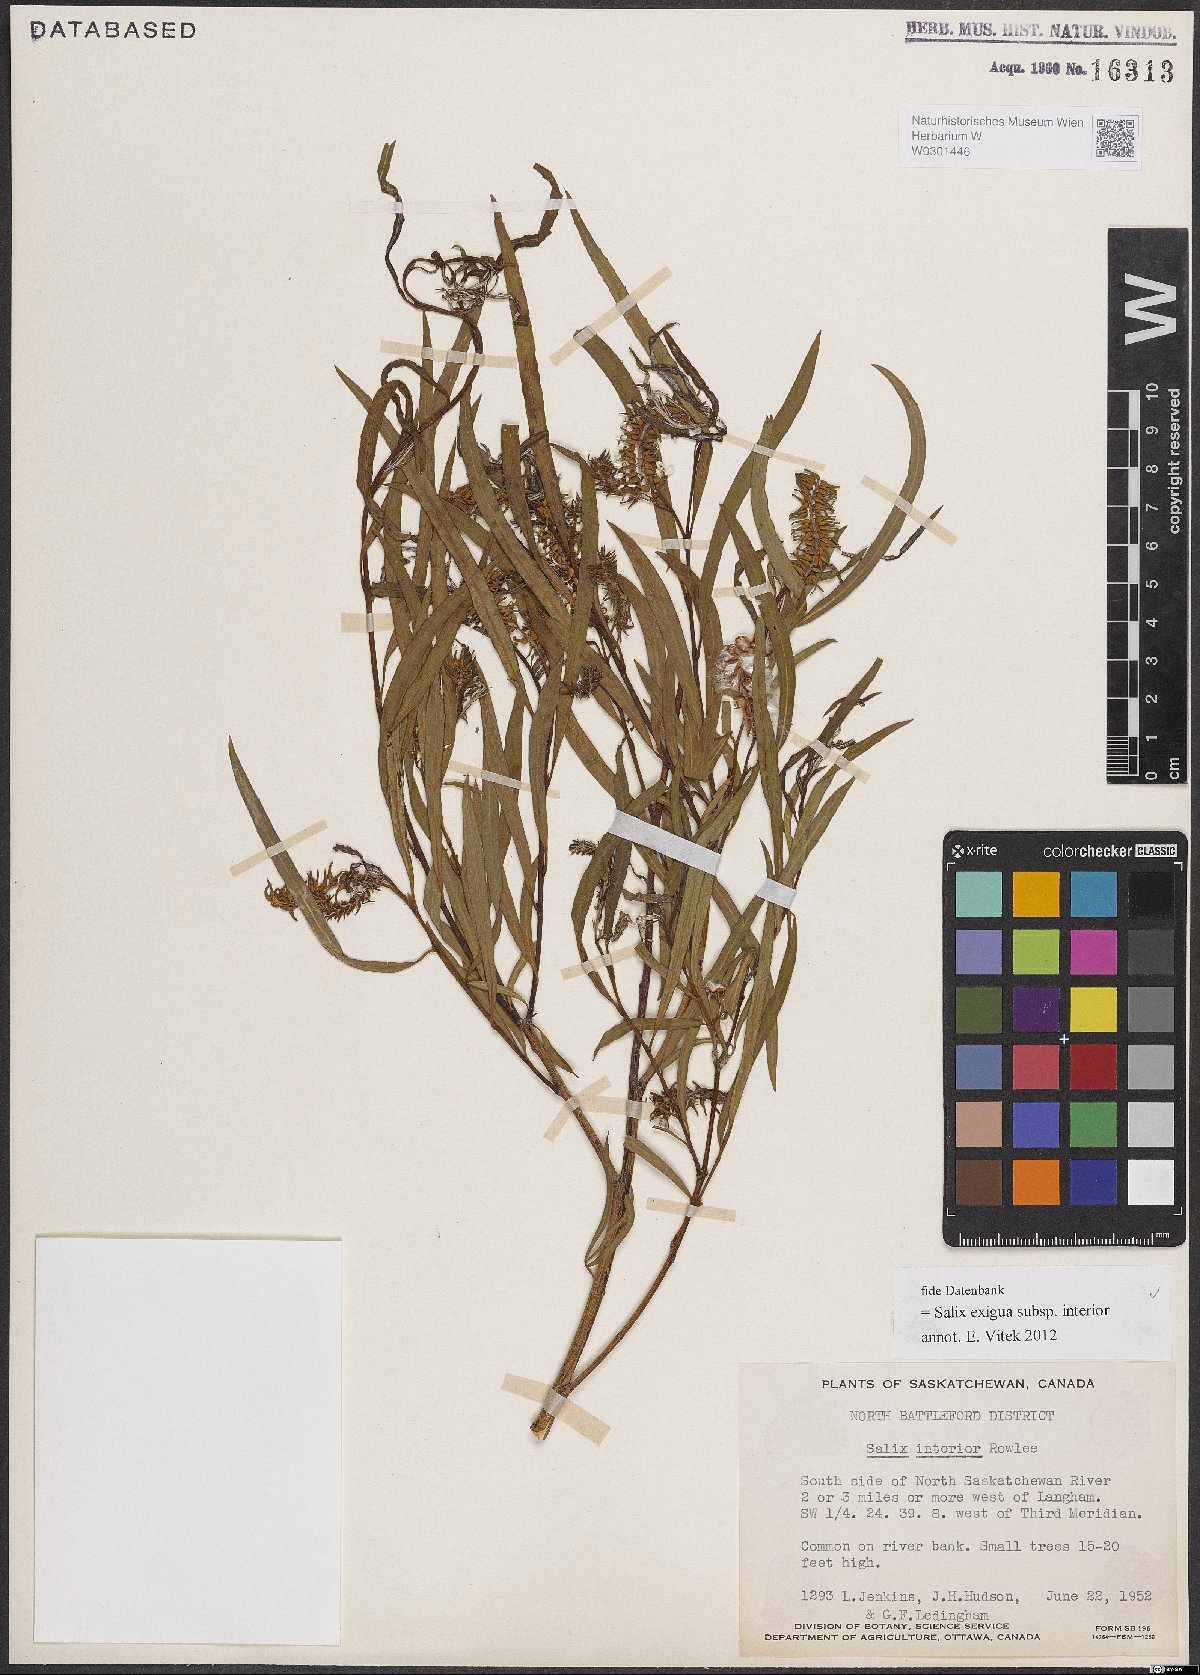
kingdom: Plantae
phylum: Tracheophyta
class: Magnoliopsida
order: Malpighiales
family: Salicaceae
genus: Salix
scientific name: Salix interior
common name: Sandbar willow
